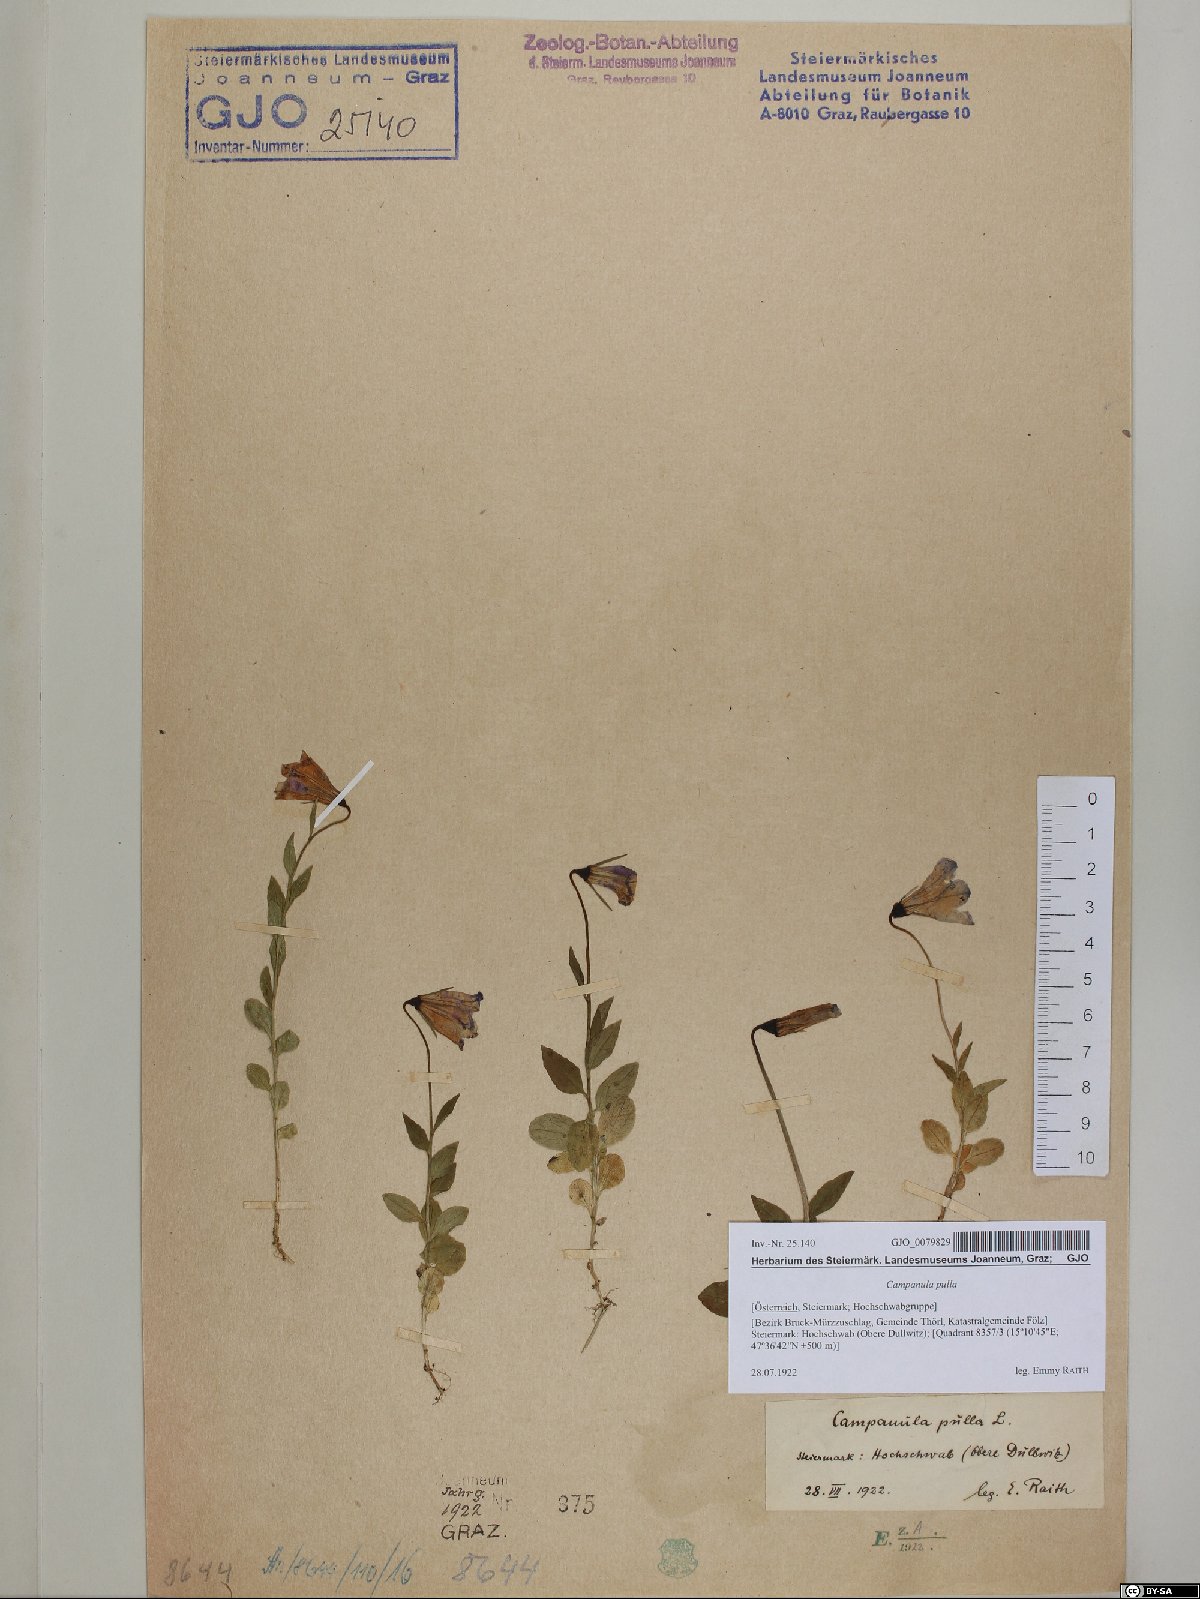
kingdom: Plantae
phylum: Tracheophyta
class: Magnoliopsida
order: Asterales
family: Campanulaceae
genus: Campanula
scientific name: Campanula pulla
